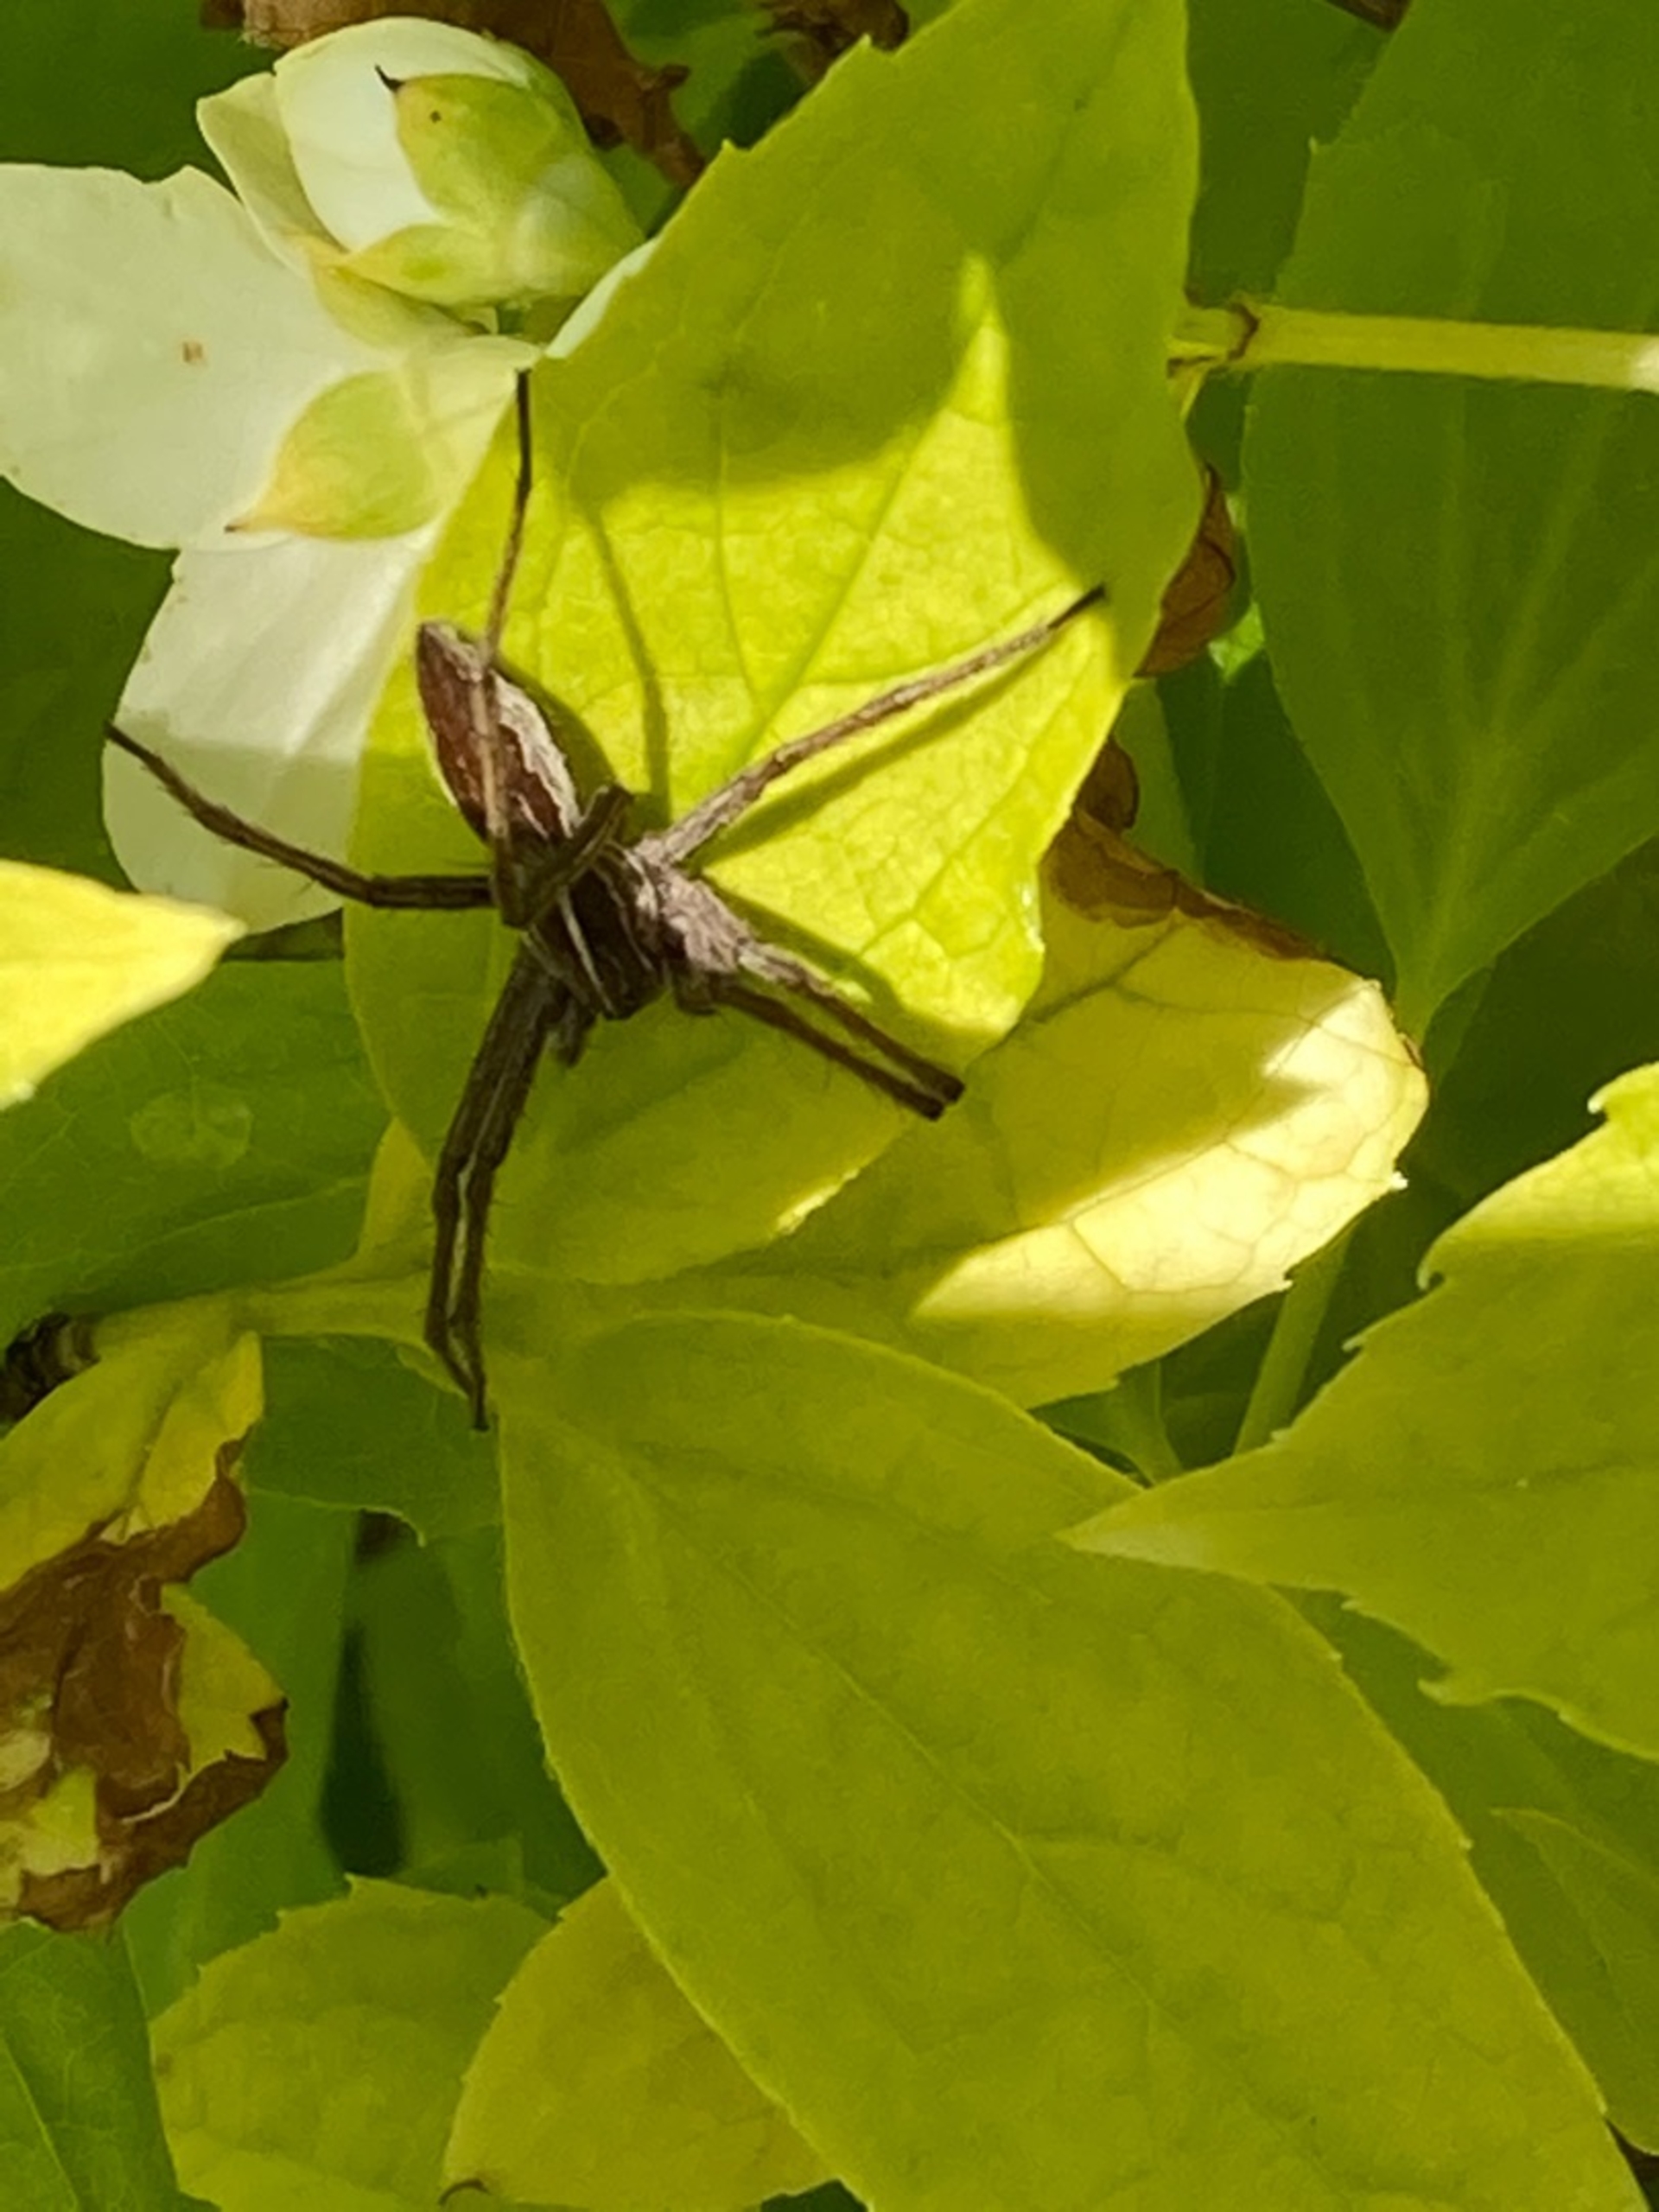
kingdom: Animalia
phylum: Arthropoda
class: Arachnida
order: Araneae
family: Pisauridae
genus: Pisaura
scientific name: Pisaura mirabilis
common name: Almindelig rovedderkop
